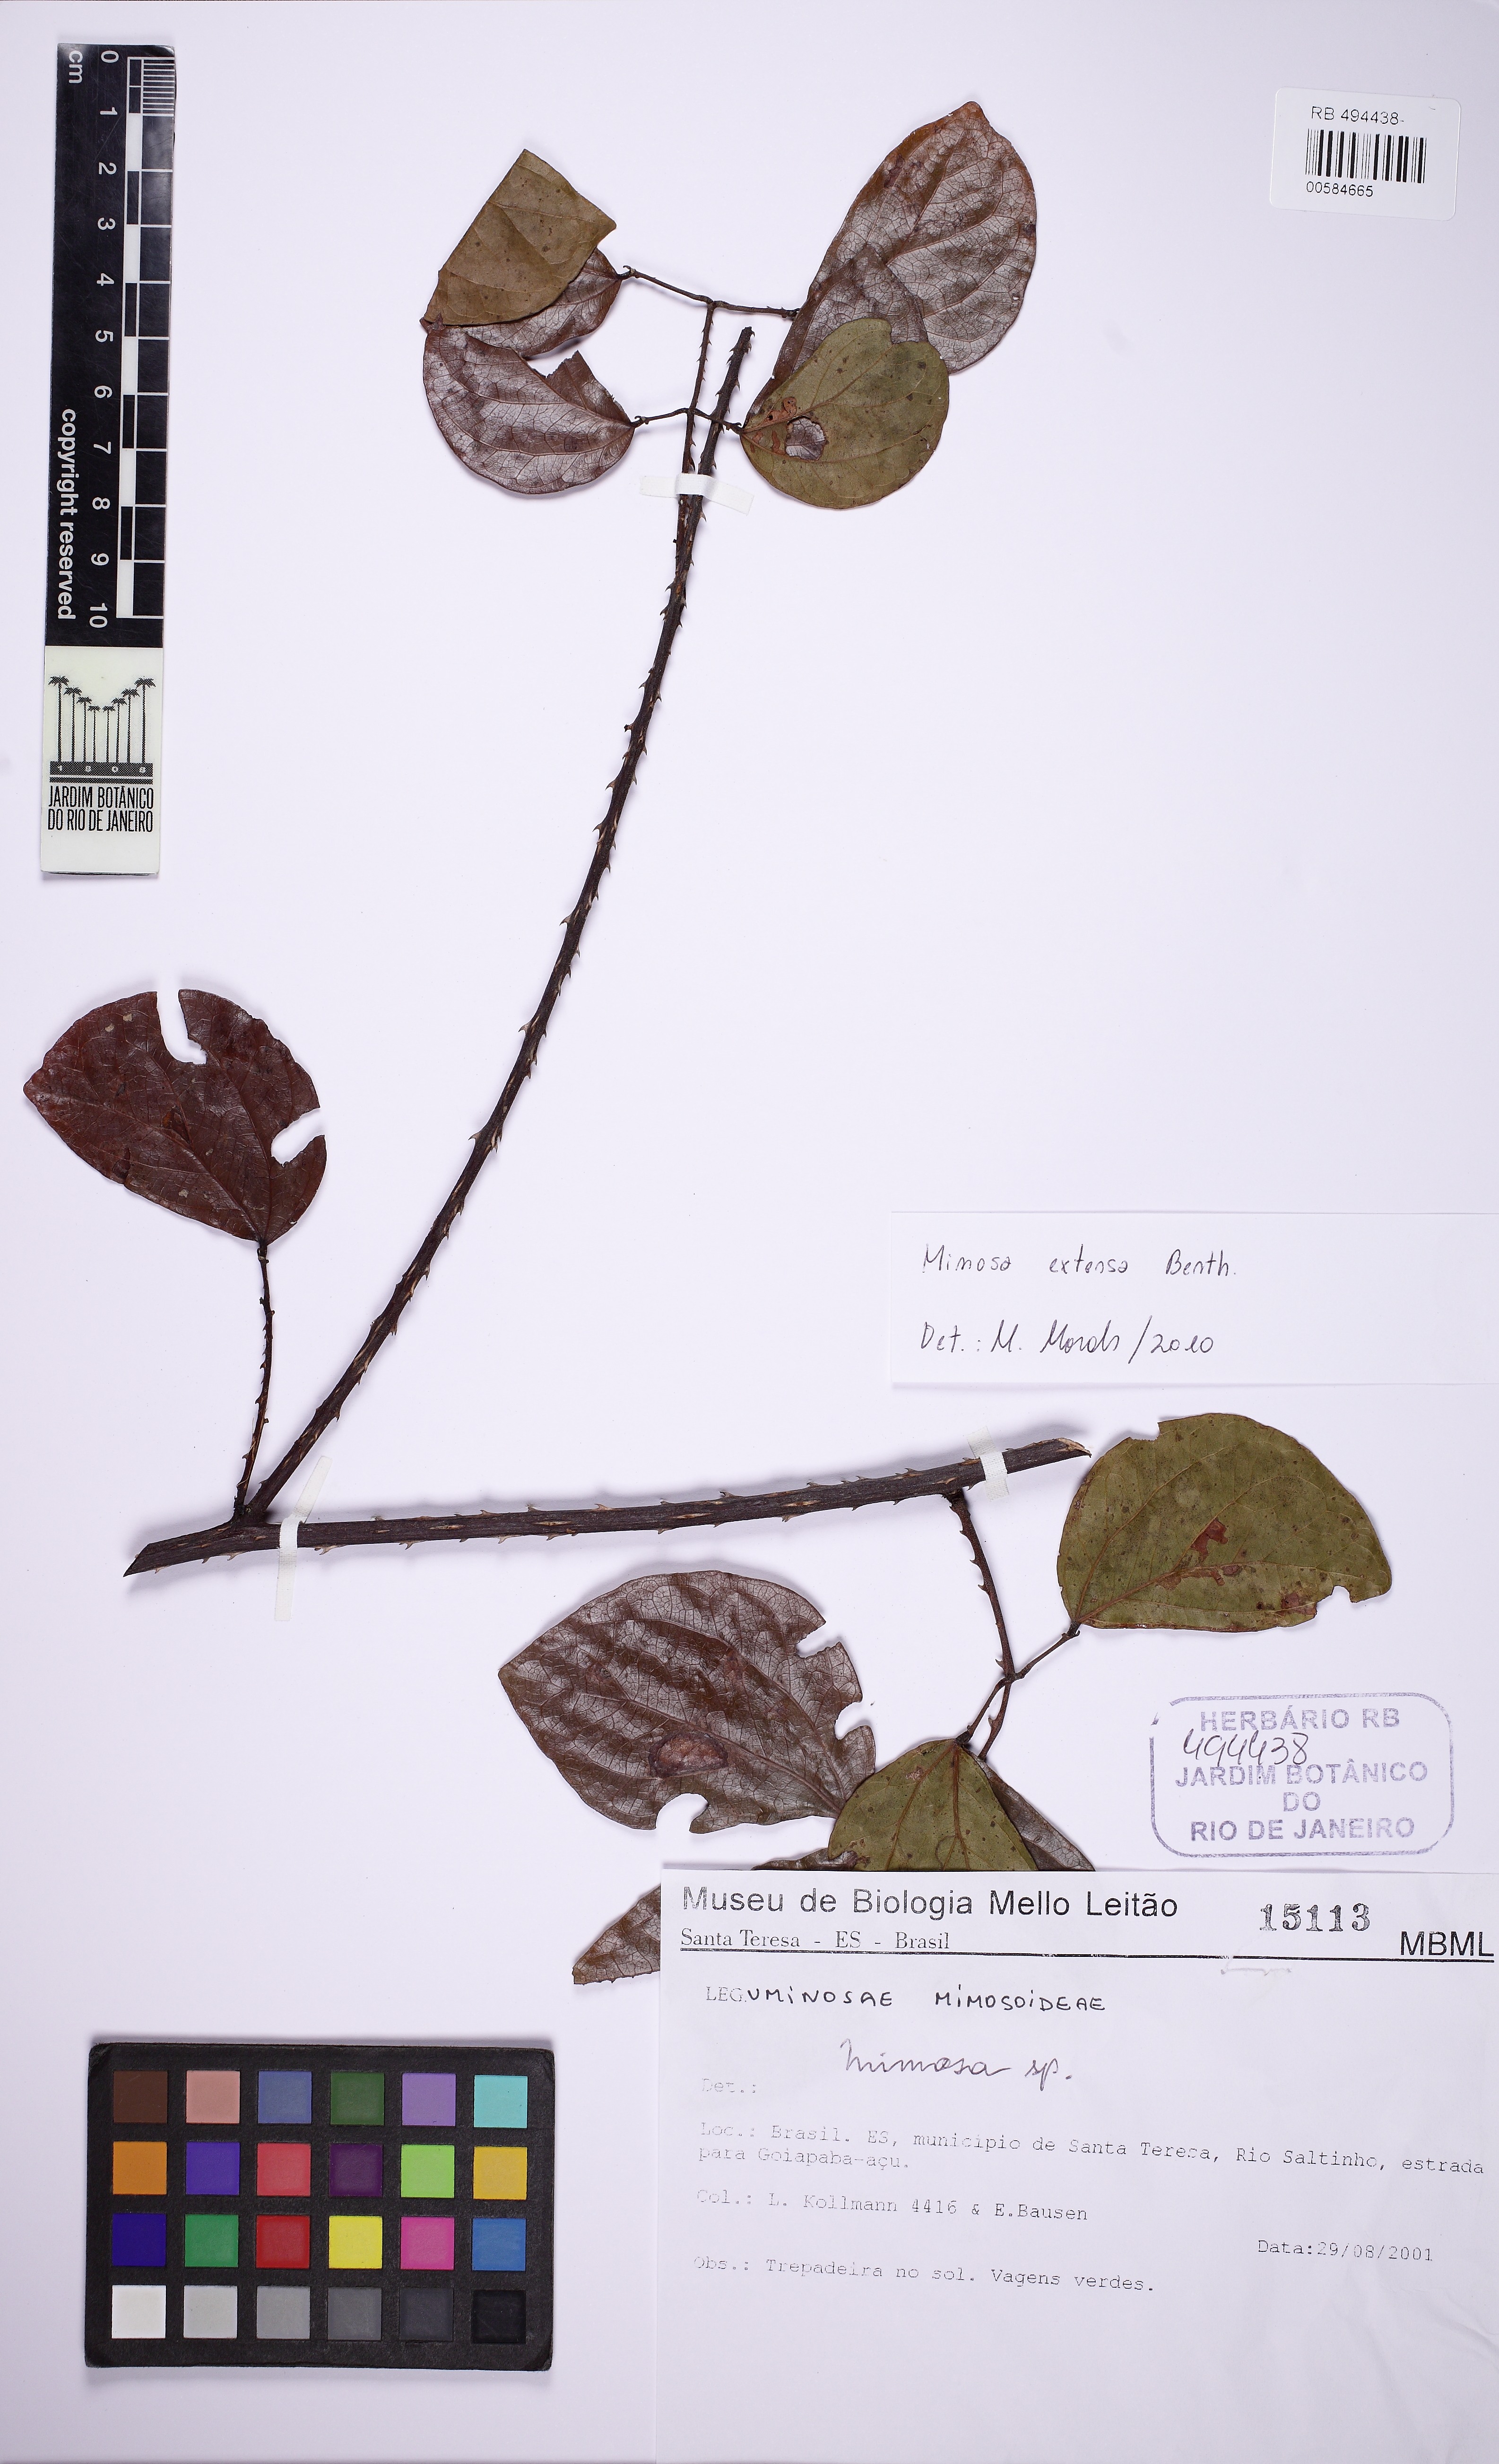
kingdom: Plantae
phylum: Tracheophyta
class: Magnoliopsida
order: Fabales
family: Fabaceae
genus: Mimosa
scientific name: Mimosa extensa
